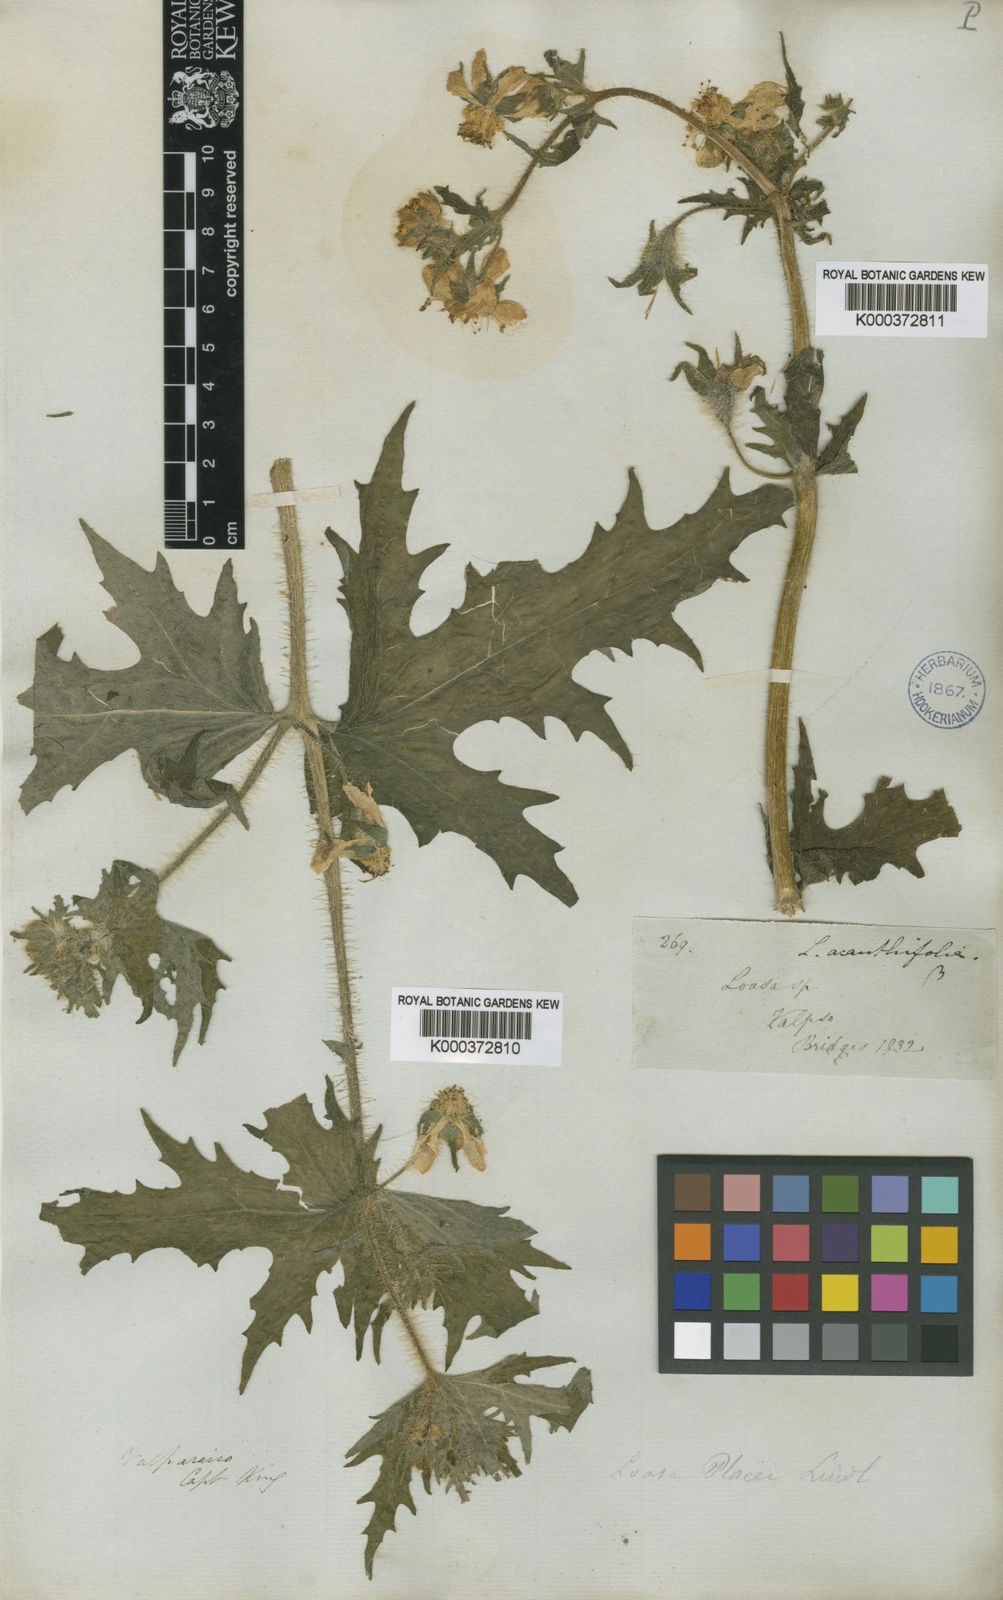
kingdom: Plantae
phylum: Tracheophyta
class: Magnoliopsida
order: Cornales
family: Loasaceae
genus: Loasa
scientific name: Loasa placei
